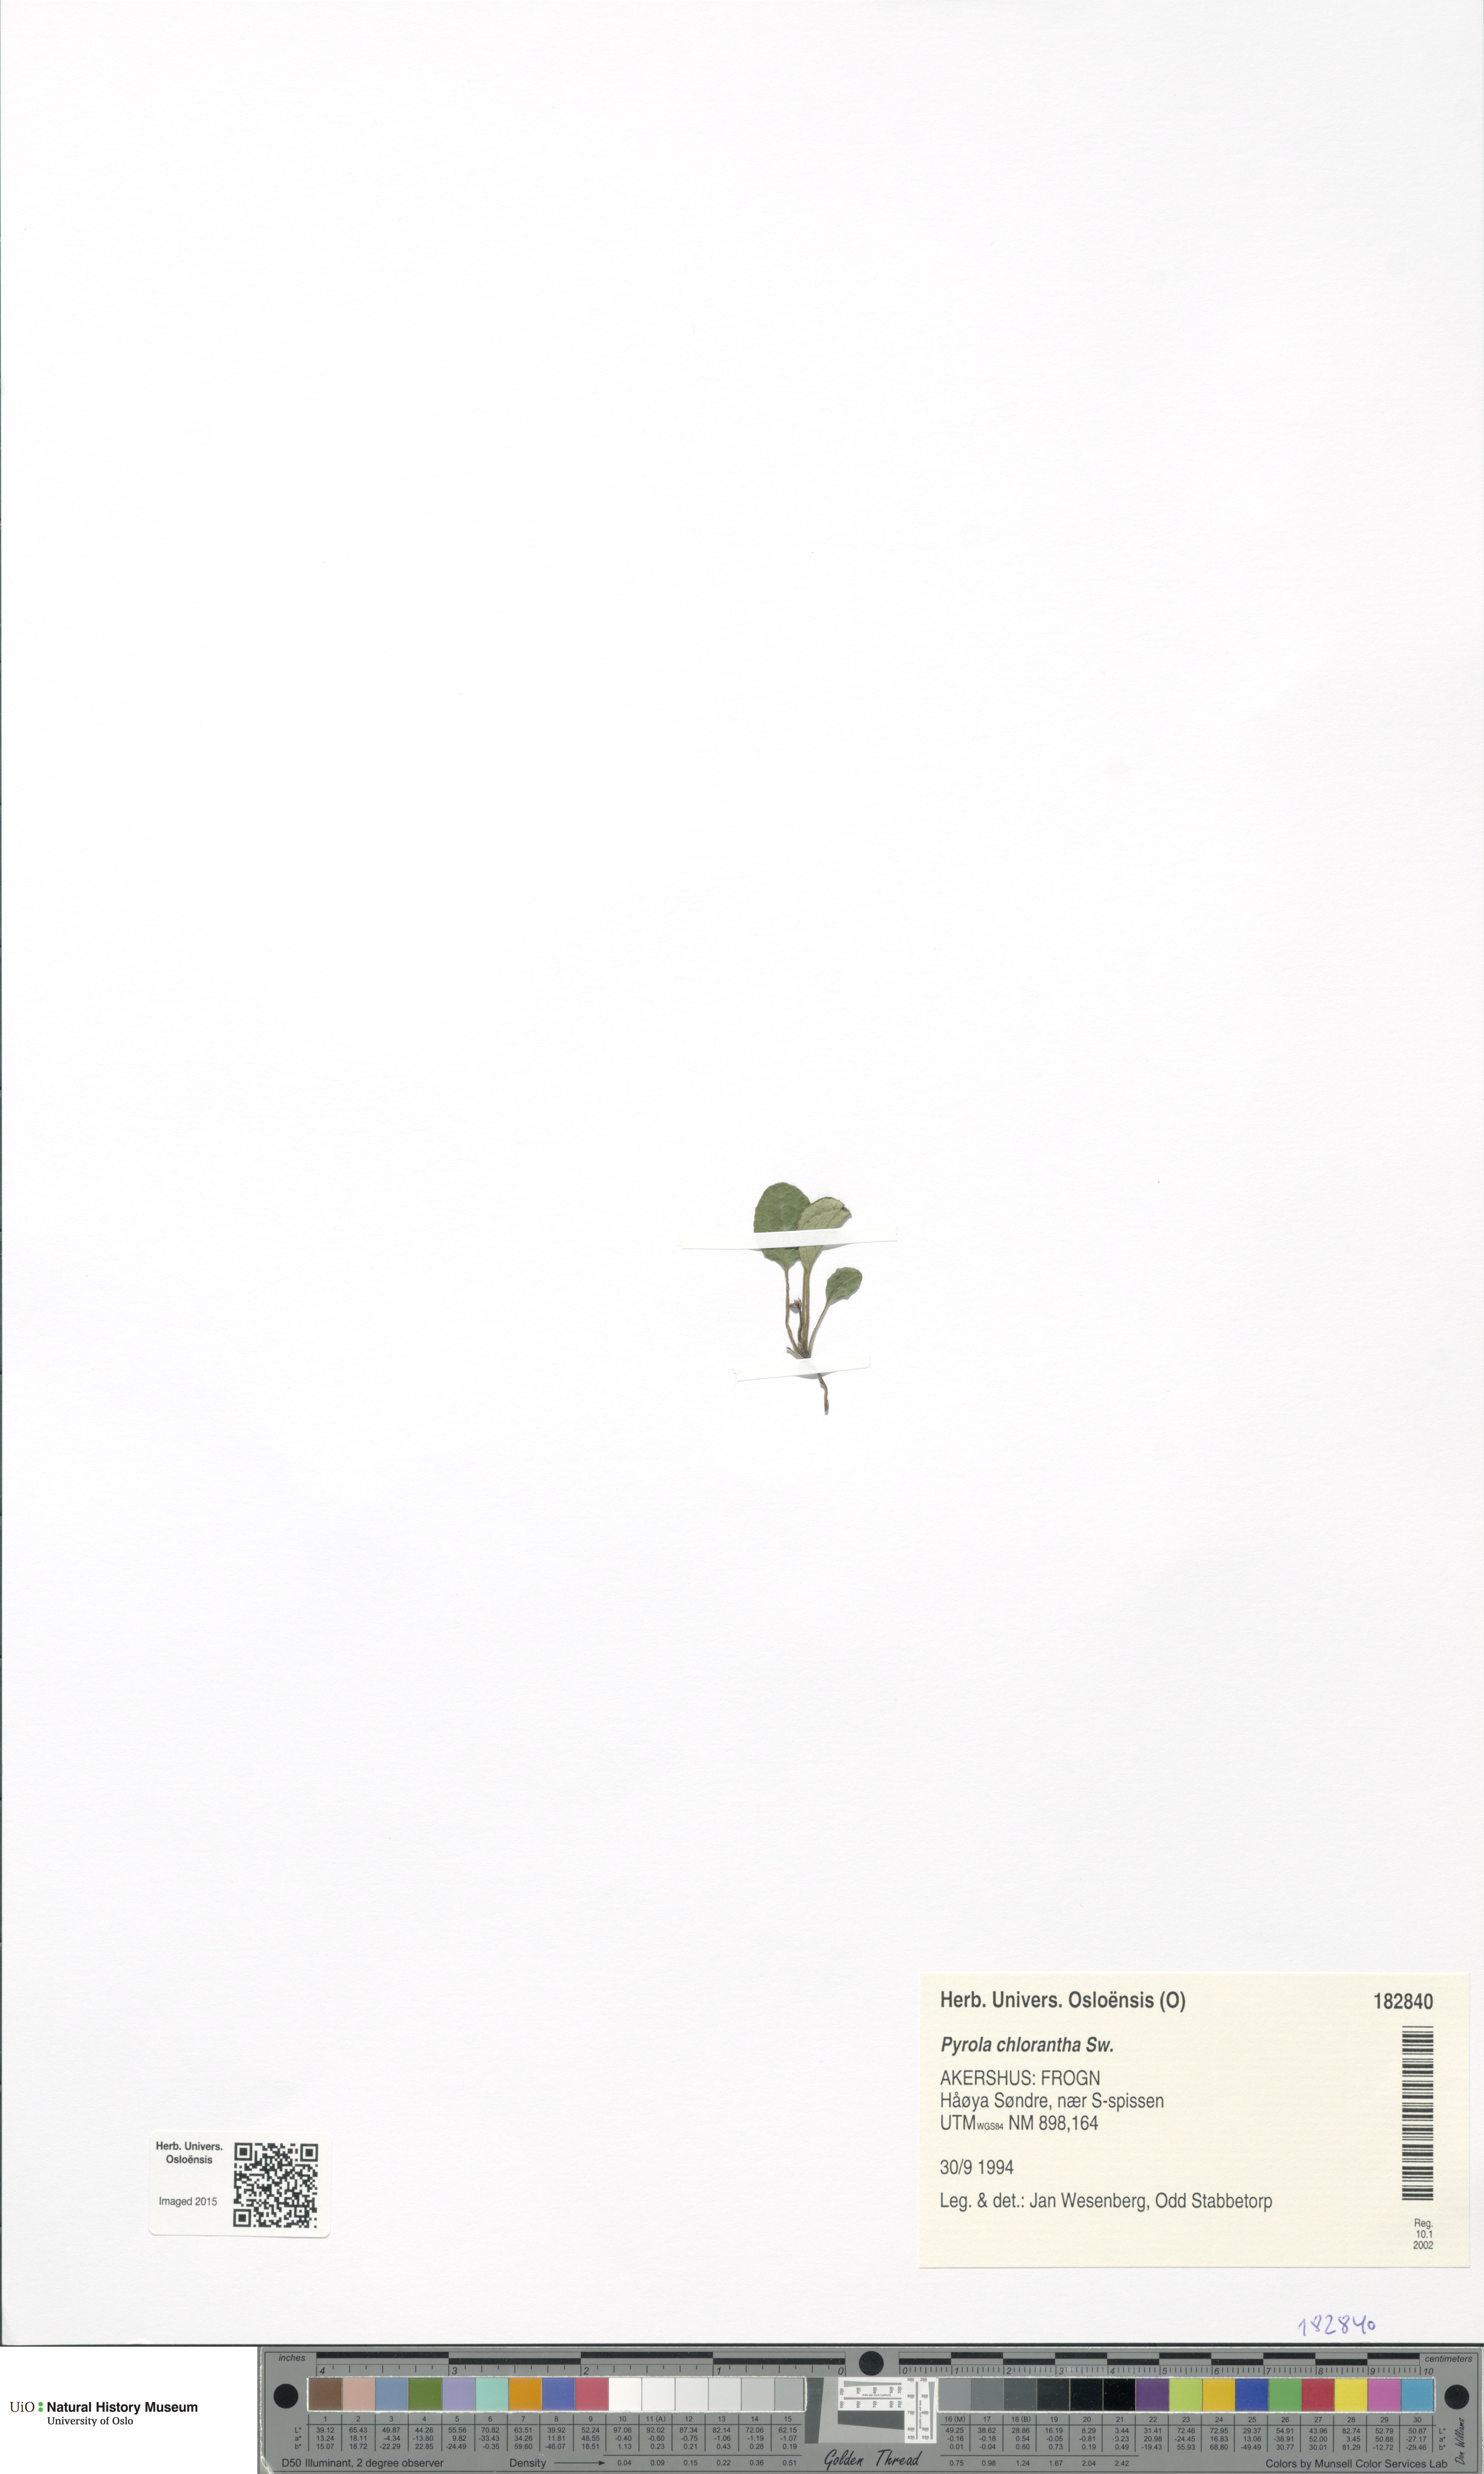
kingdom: Plantae
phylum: Tracheophyta
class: Magnoliopsida
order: Ericales
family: Ericaceae
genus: Pyrola
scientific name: Pyrola chlorantha
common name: Green wintergreen
